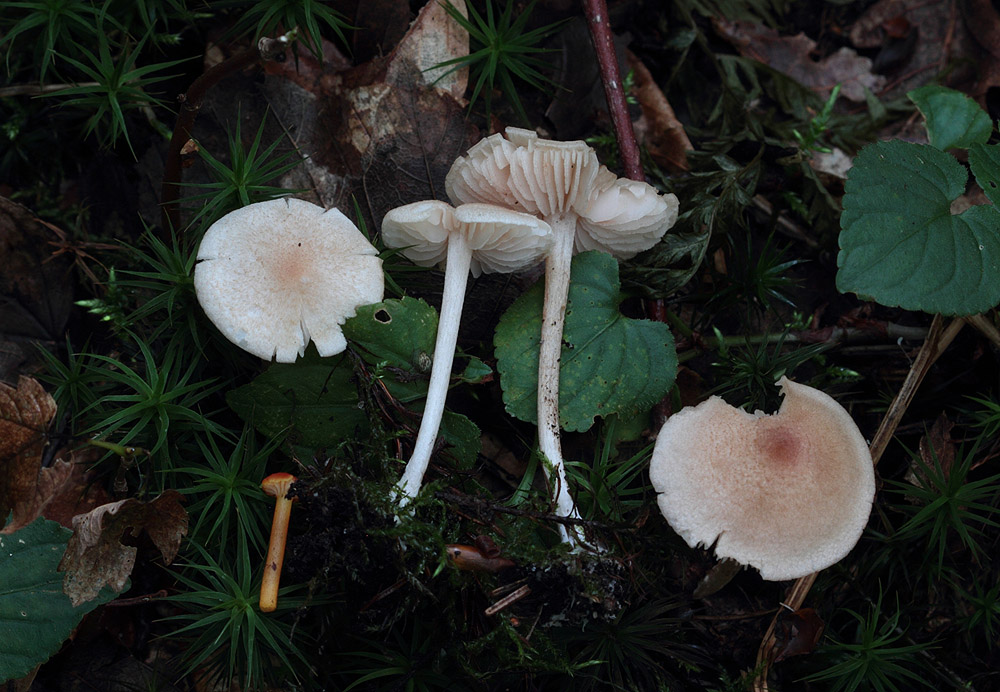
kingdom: Fungi
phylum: Basidiomycota
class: Agaricomycetes
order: Agaricales
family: Entolomataceae
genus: Entoloma
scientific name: Entoloma queletii
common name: rosalilla rødblad
